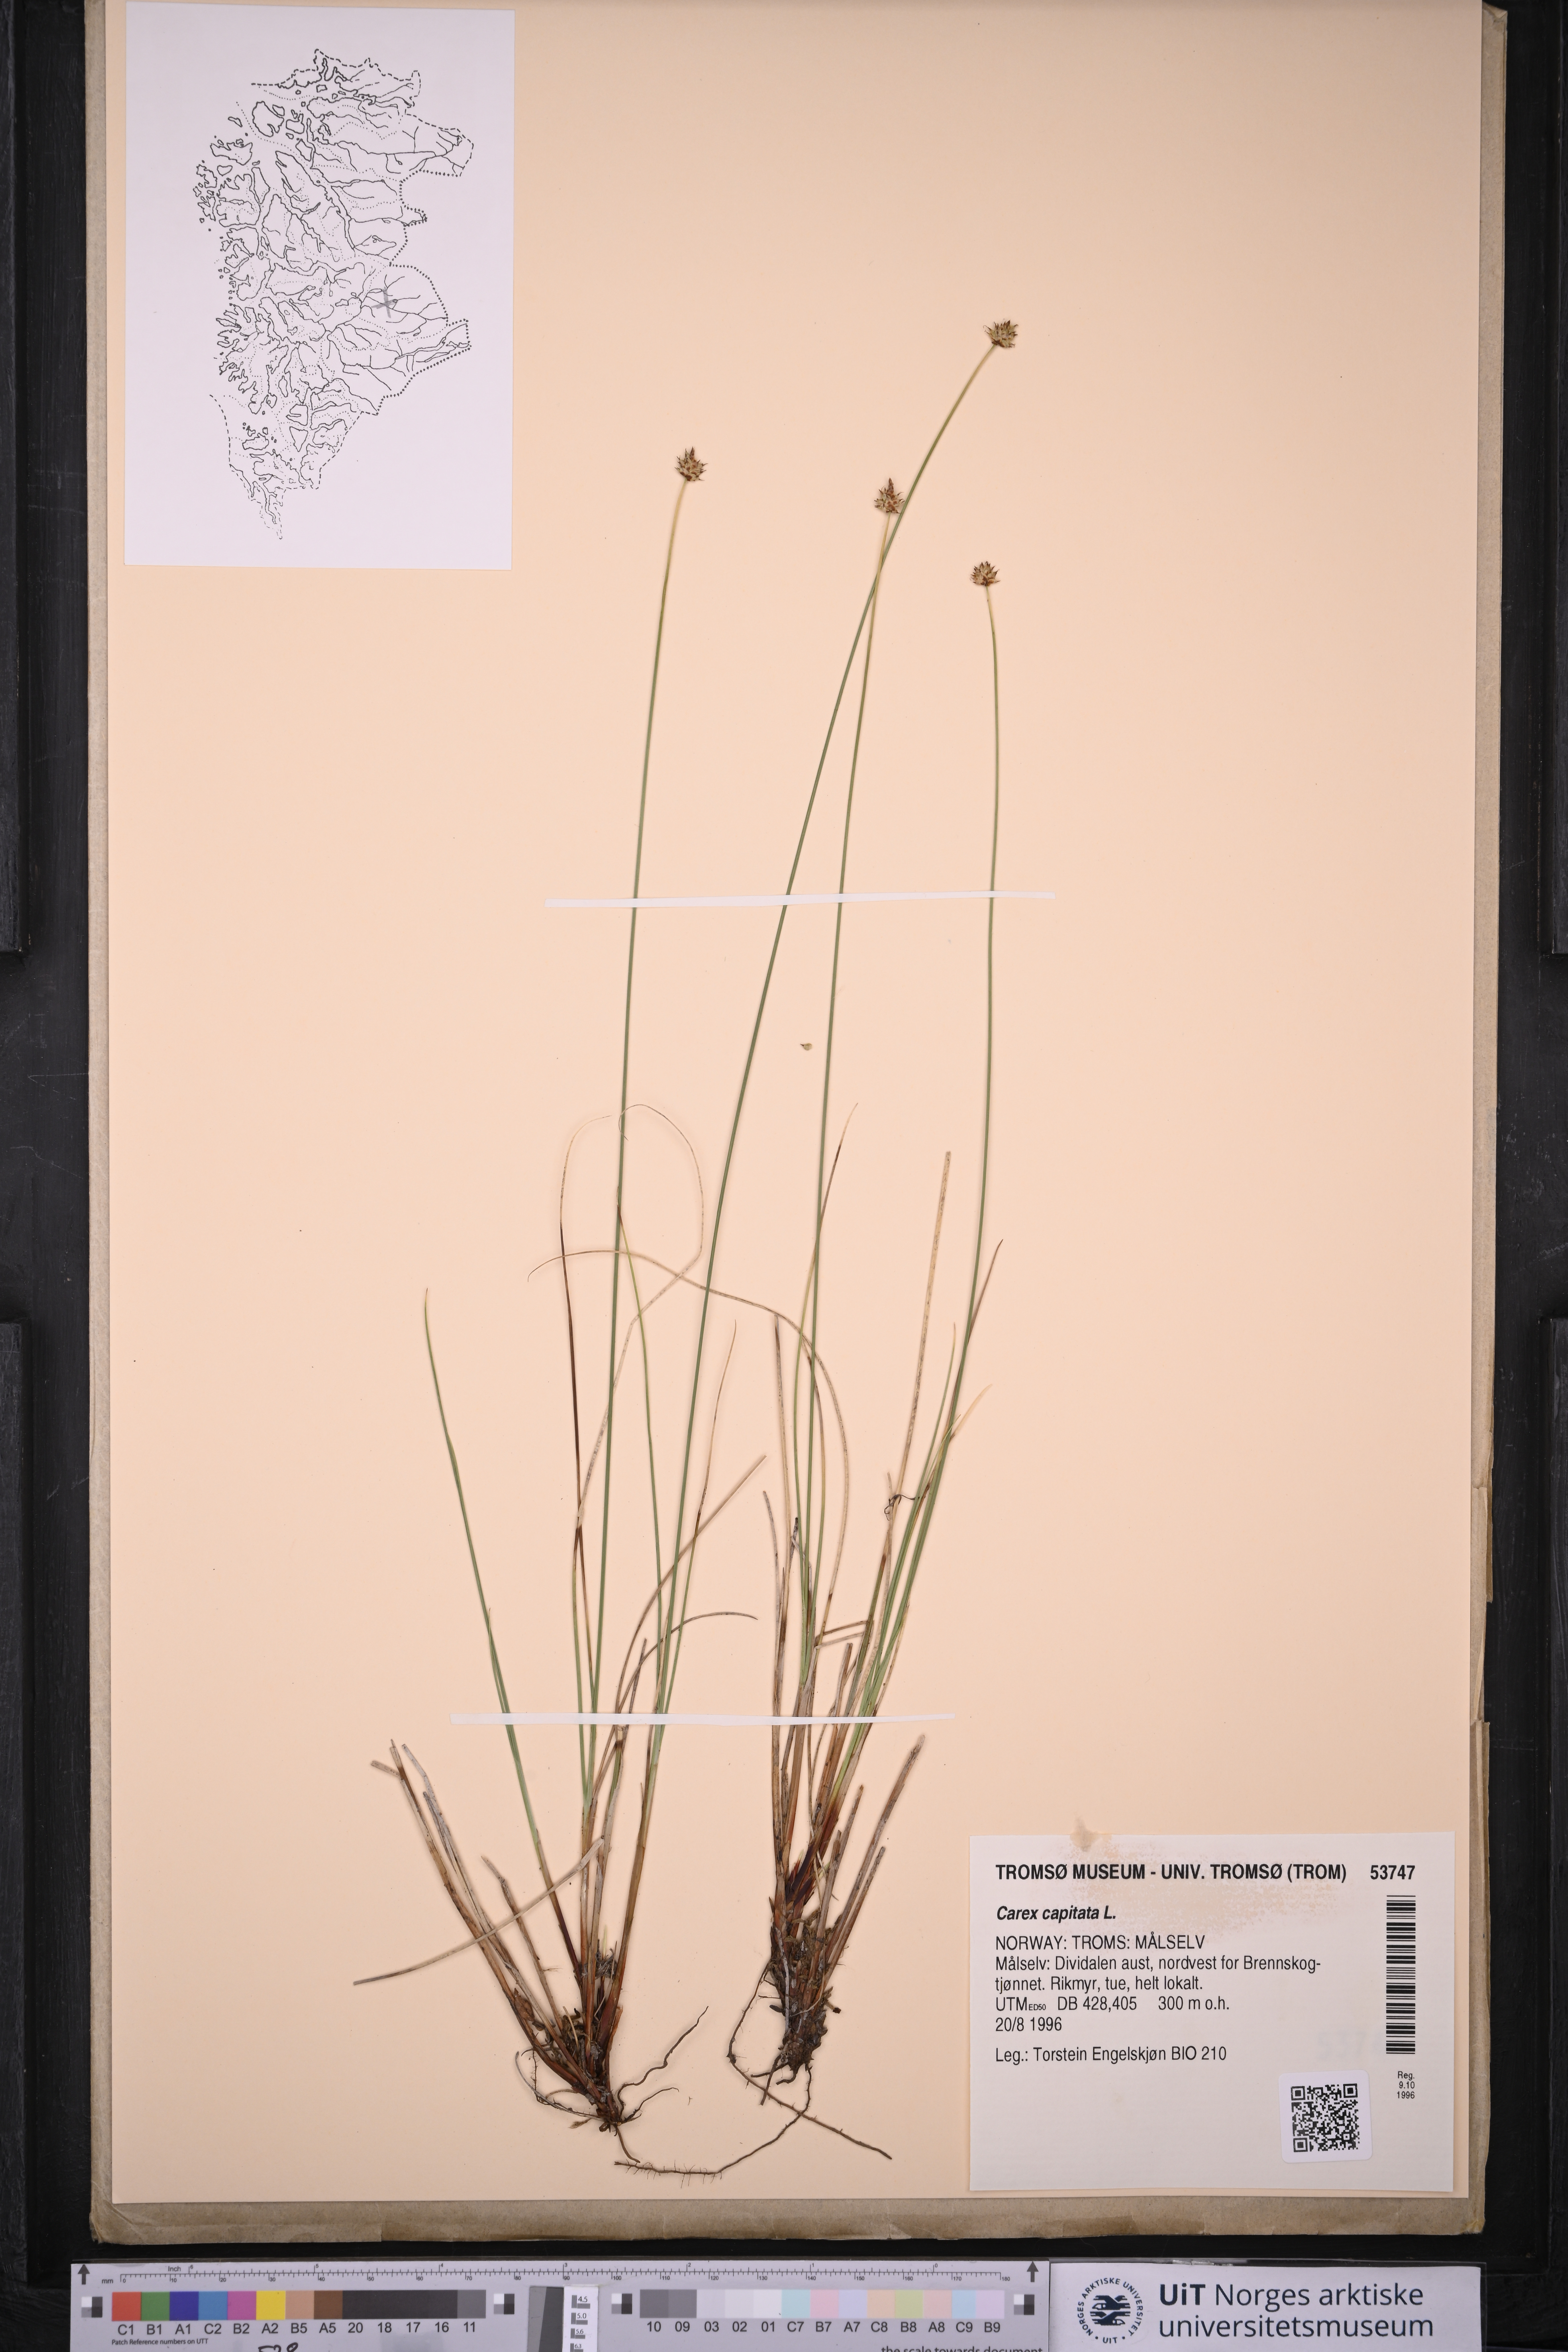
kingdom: Plantae
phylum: Tracheophyta
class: Liliopsida
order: Poales
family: Cyperaceae
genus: Carex
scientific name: Carex capitata
